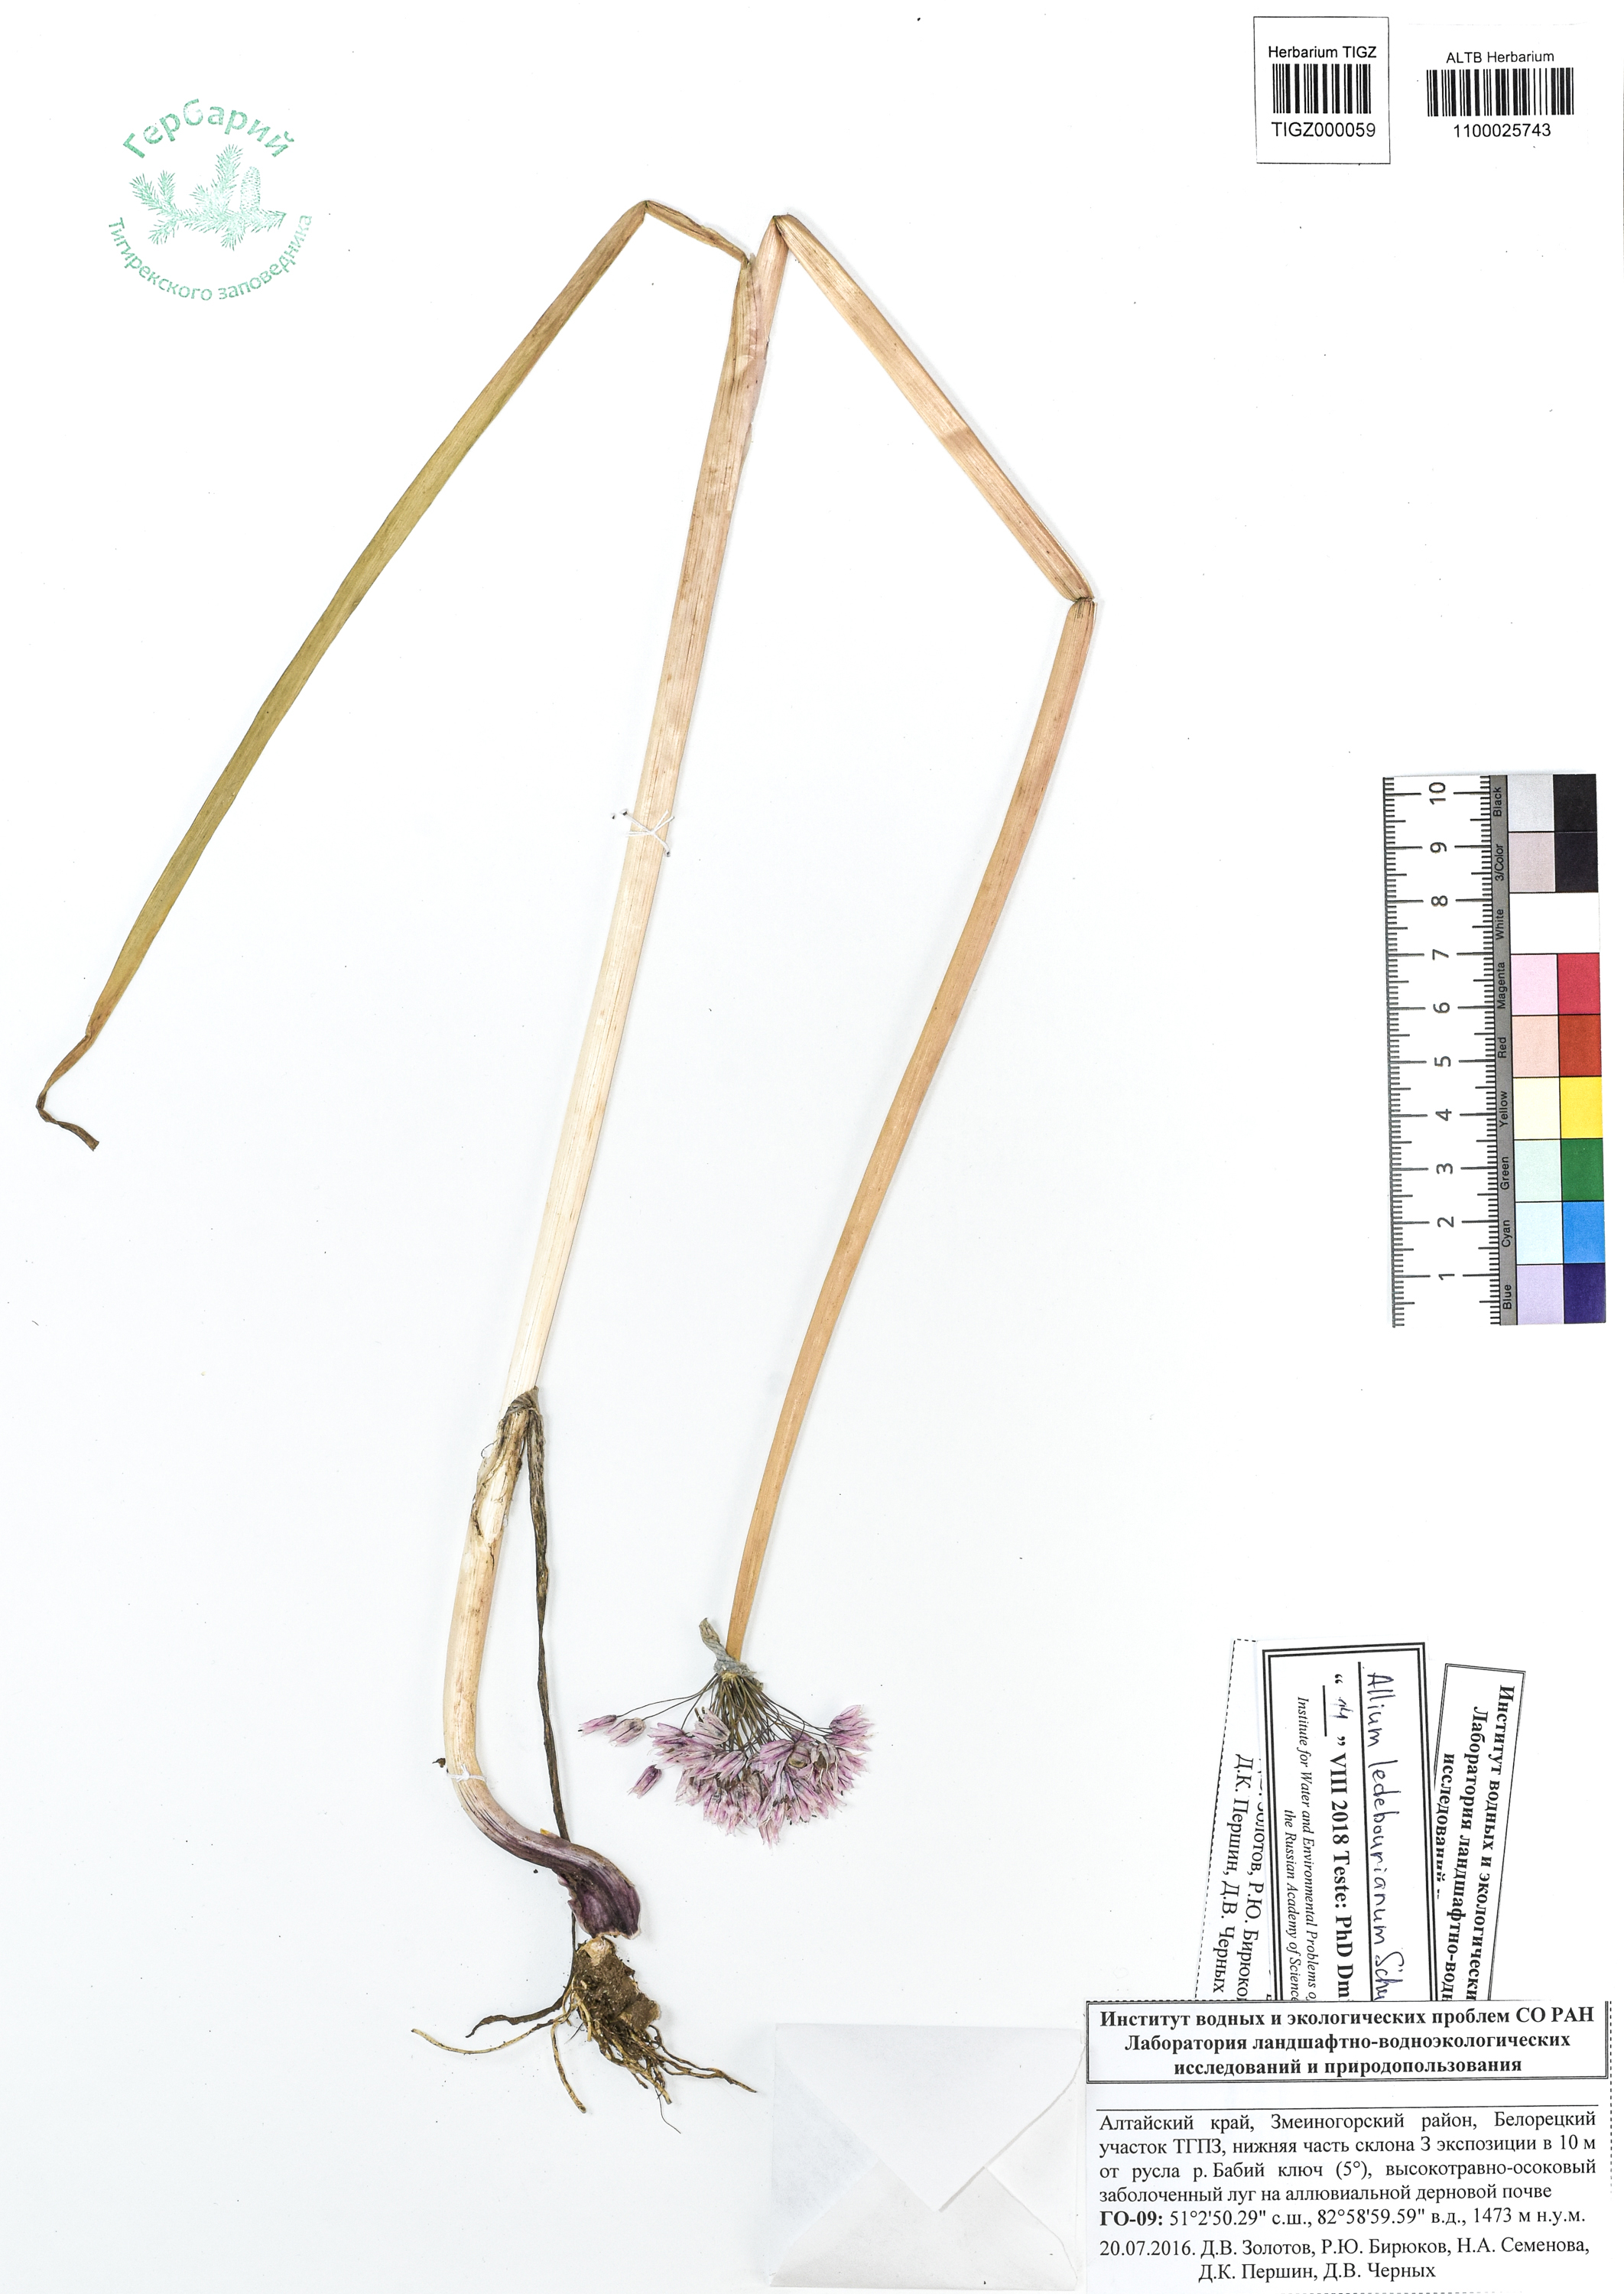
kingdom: Plantae
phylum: Tracheophyta
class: Liliopsida
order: Asparagales
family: Amaryllidaceae
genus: Allium
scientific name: Allium ledebourianum
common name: Ledebour chive
